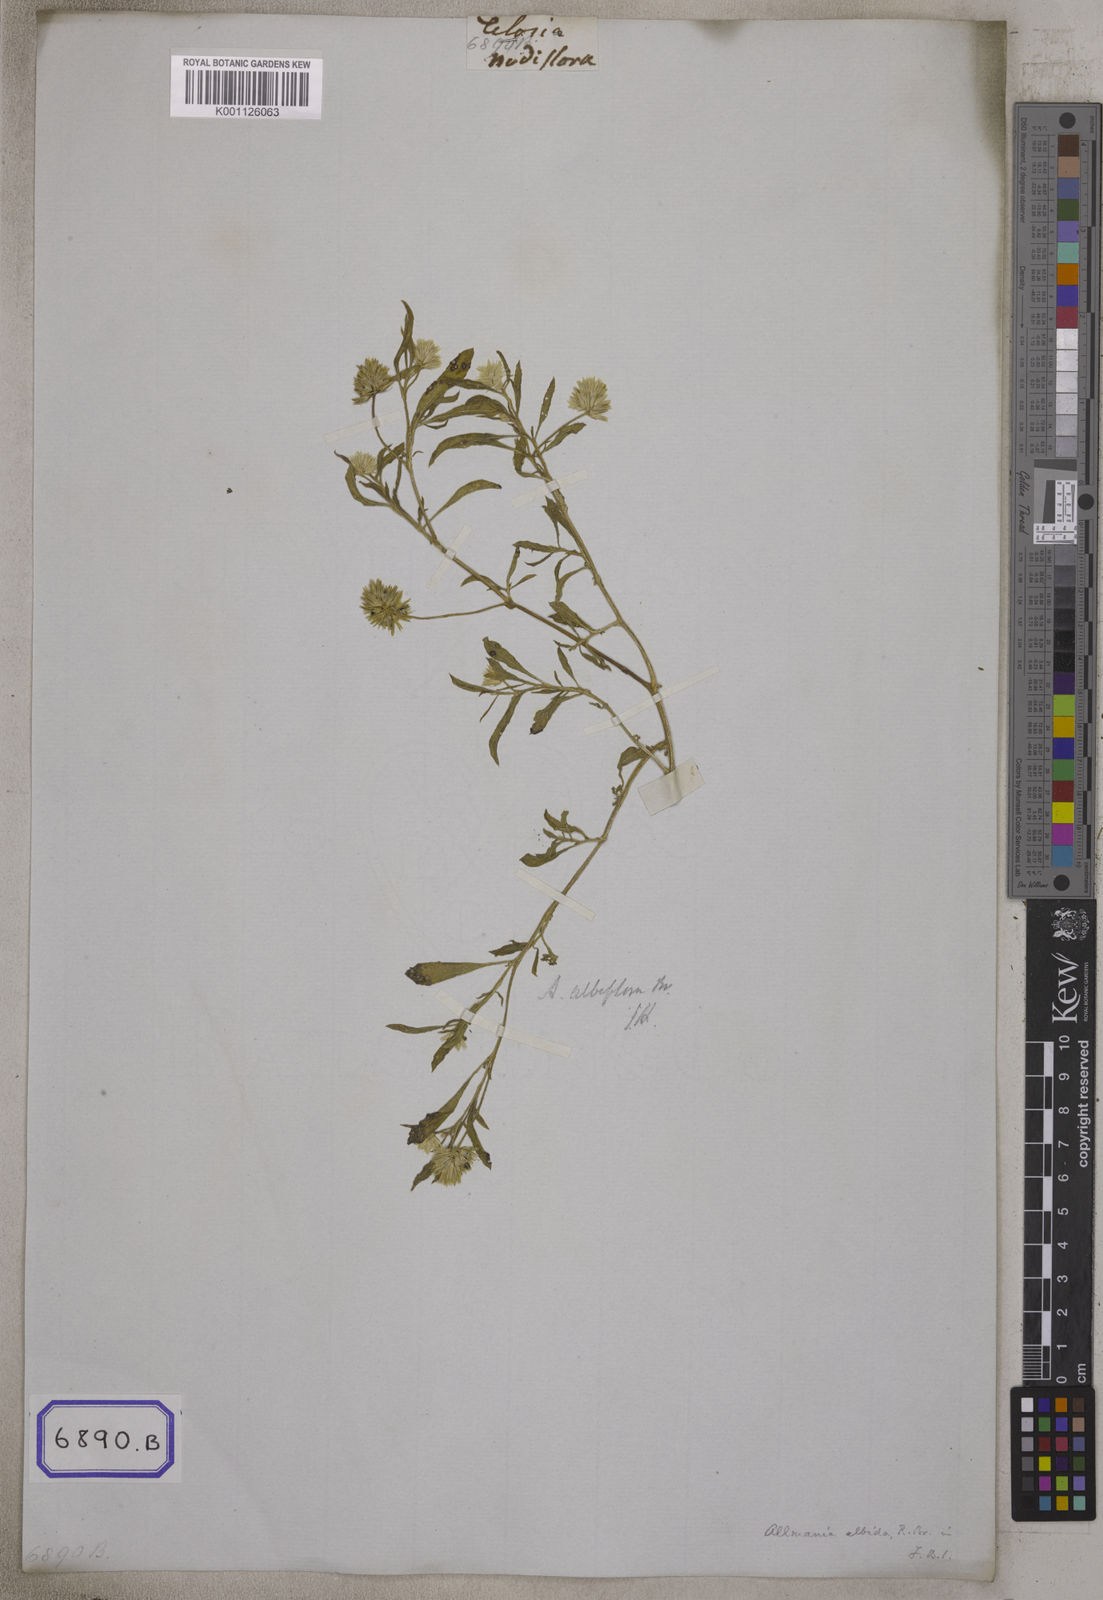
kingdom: Plantae
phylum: Tracheophyta
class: Magnoliopsida
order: Caryophyllales
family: Amaranthaceae
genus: Allmania
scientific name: Allmania
